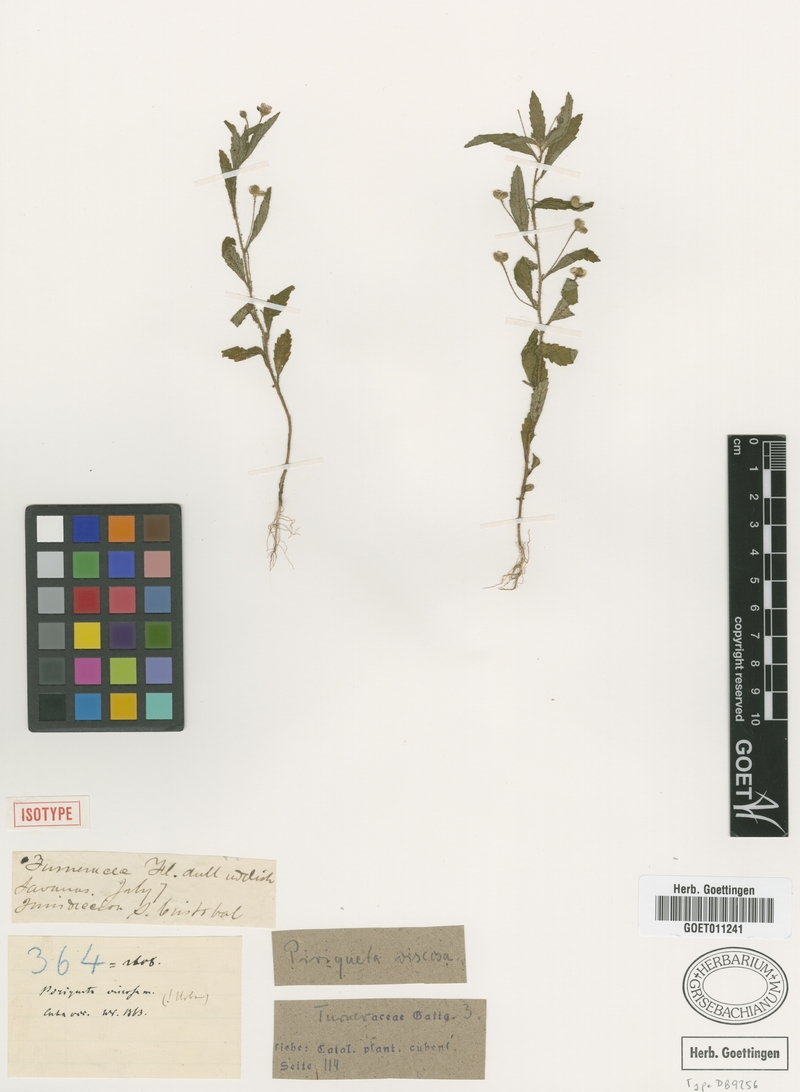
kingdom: Plantae
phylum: Tracheophyta
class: Magnoliopsida
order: Malpighiales
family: Turneraceae
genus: Piriqueta
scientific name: Piriqueta viscosa
